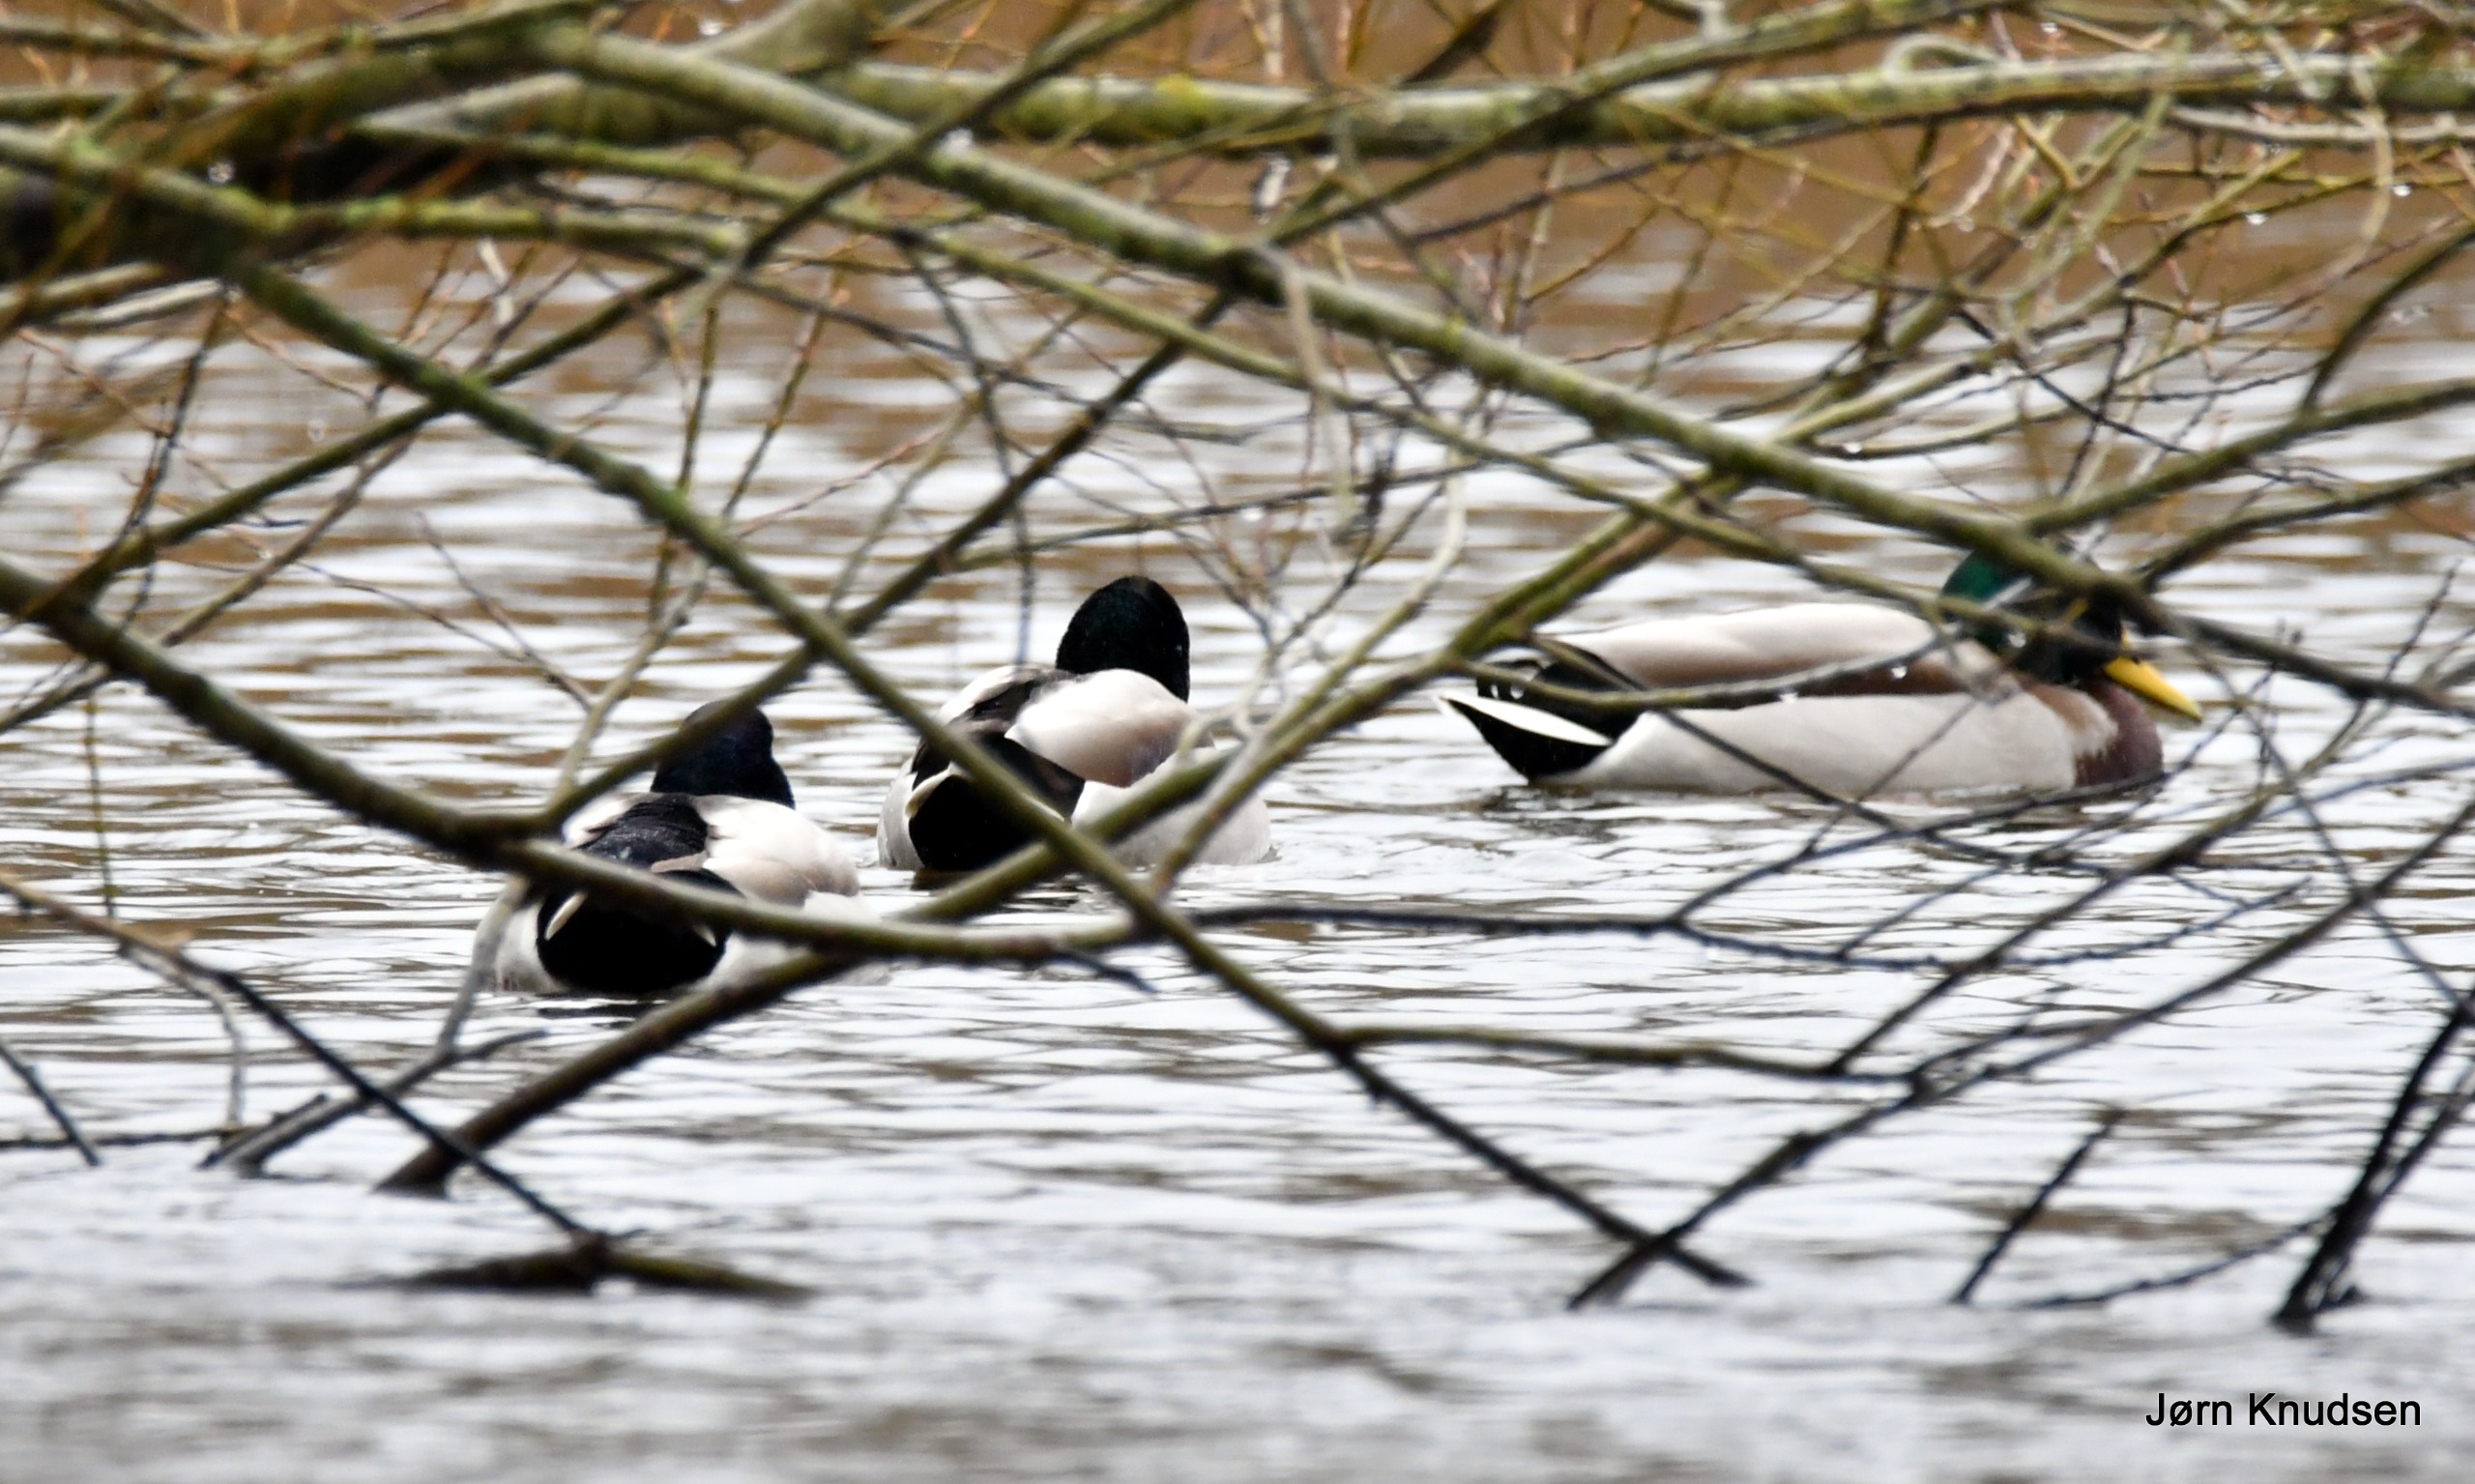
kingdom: Animalia
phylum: Chordata
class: Aves
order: Anseriformes
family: Anatidae
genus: Anas
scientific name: Anas platyrhynchos
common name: Gråand
